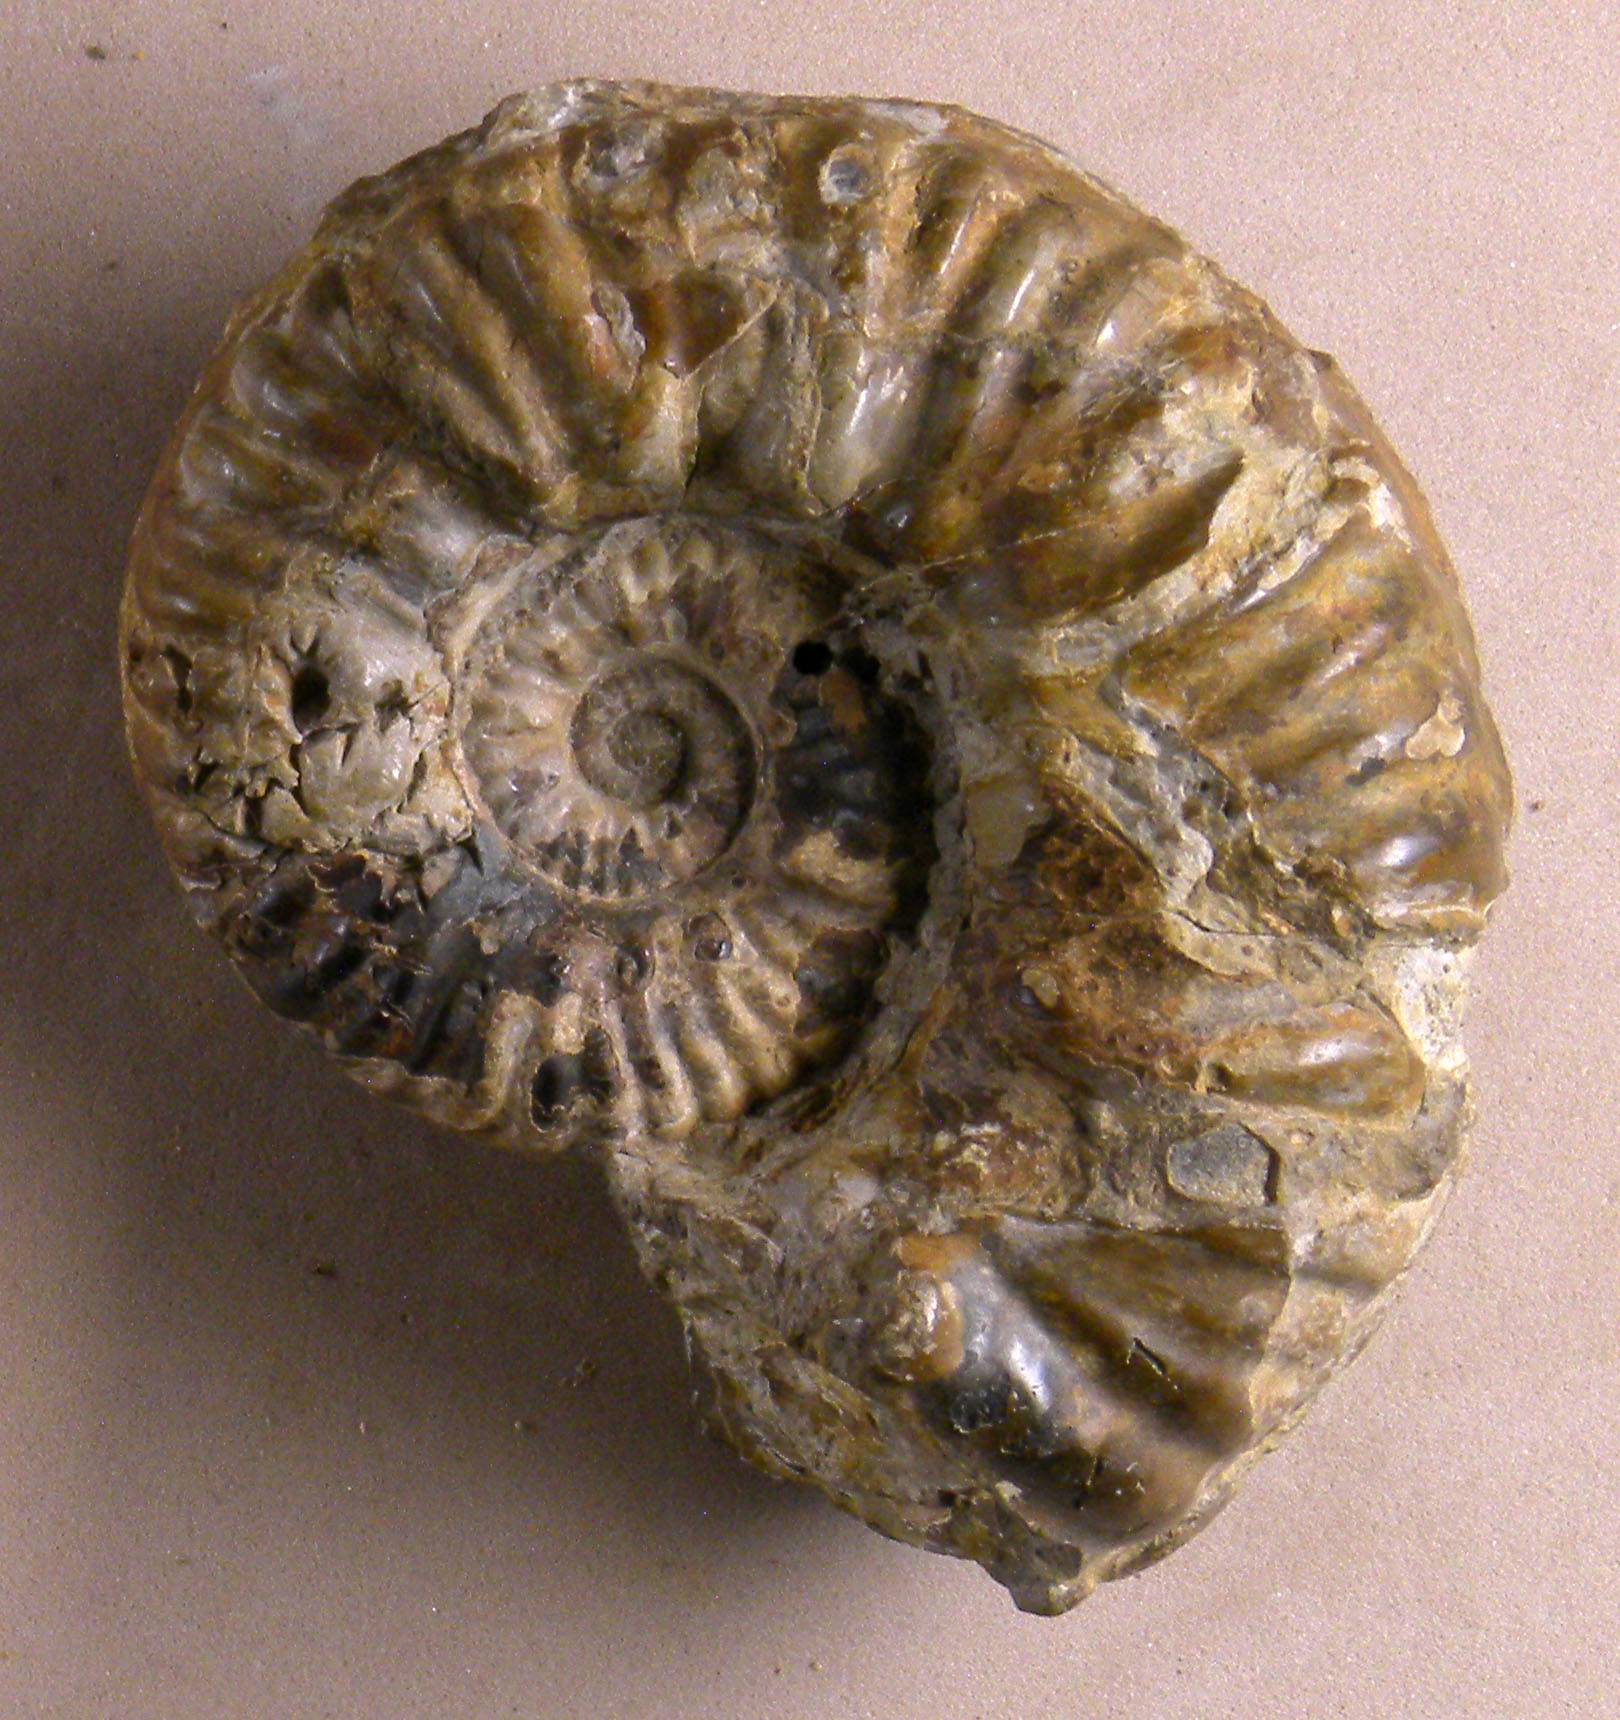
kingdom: Animalia
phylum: Mollusca
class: Cephalopoda
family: Phymatoceratidae
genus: Phymatoceras
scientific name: Phymatoceras
